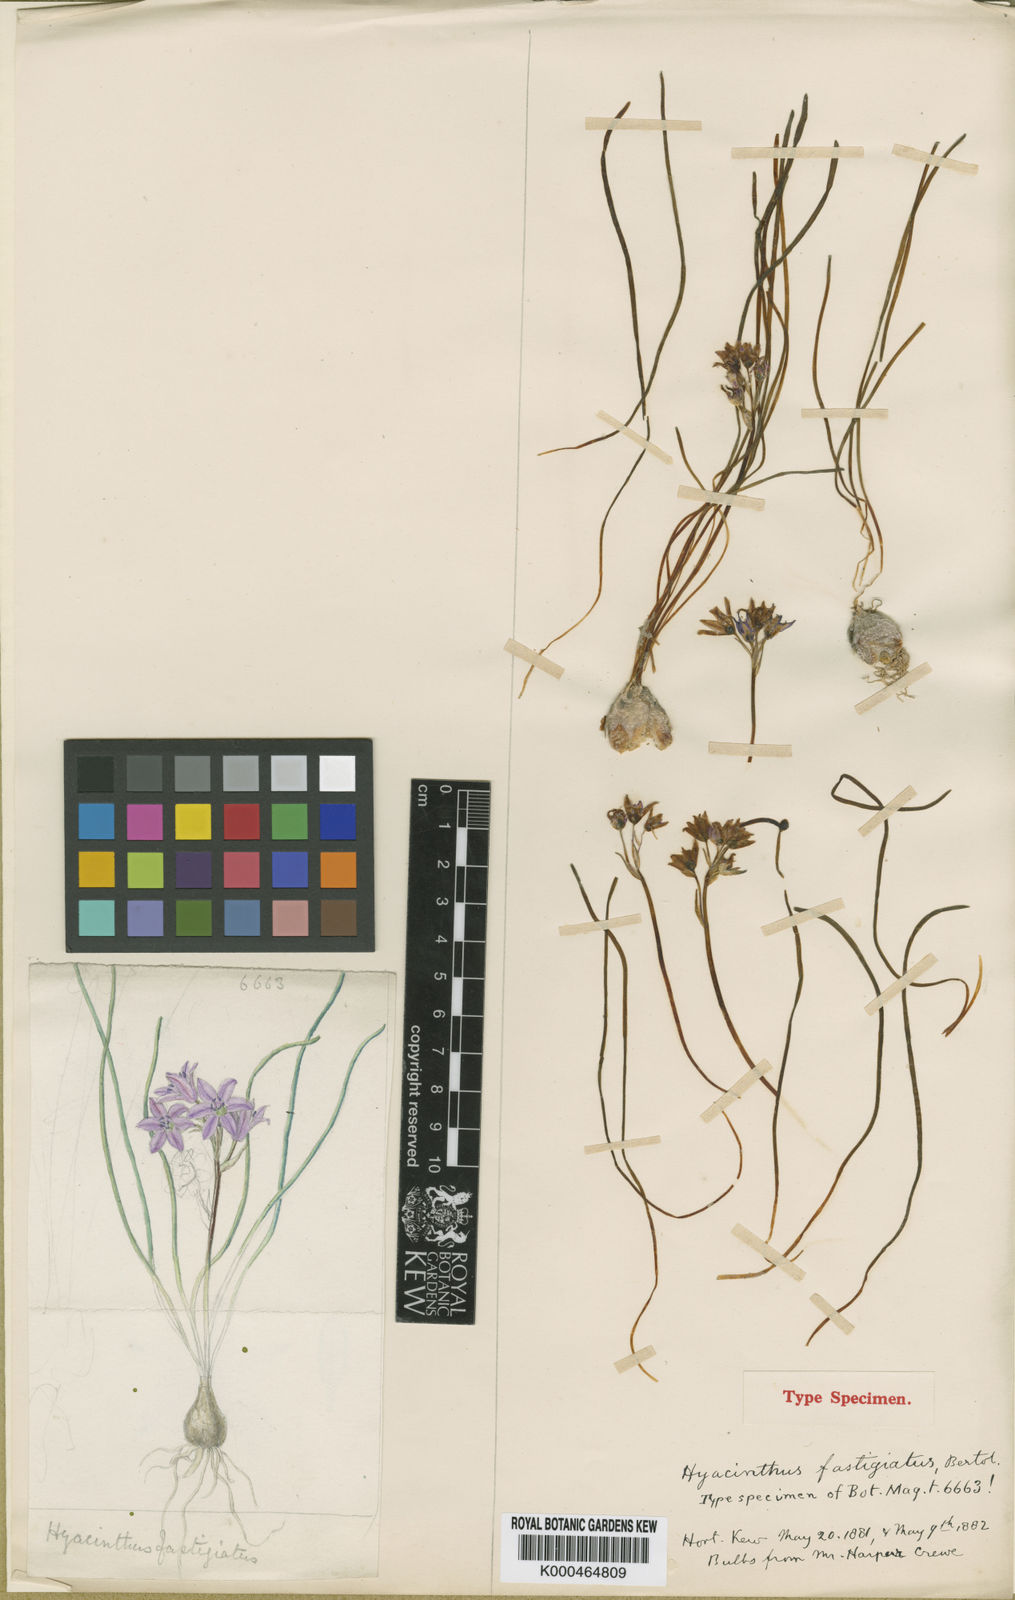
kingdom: Plantae
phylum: Tracheophyta
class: Liliopsida
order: Asparagales
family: Asparagaceae
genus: Brimeura
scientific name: Brimeura fastigiata
